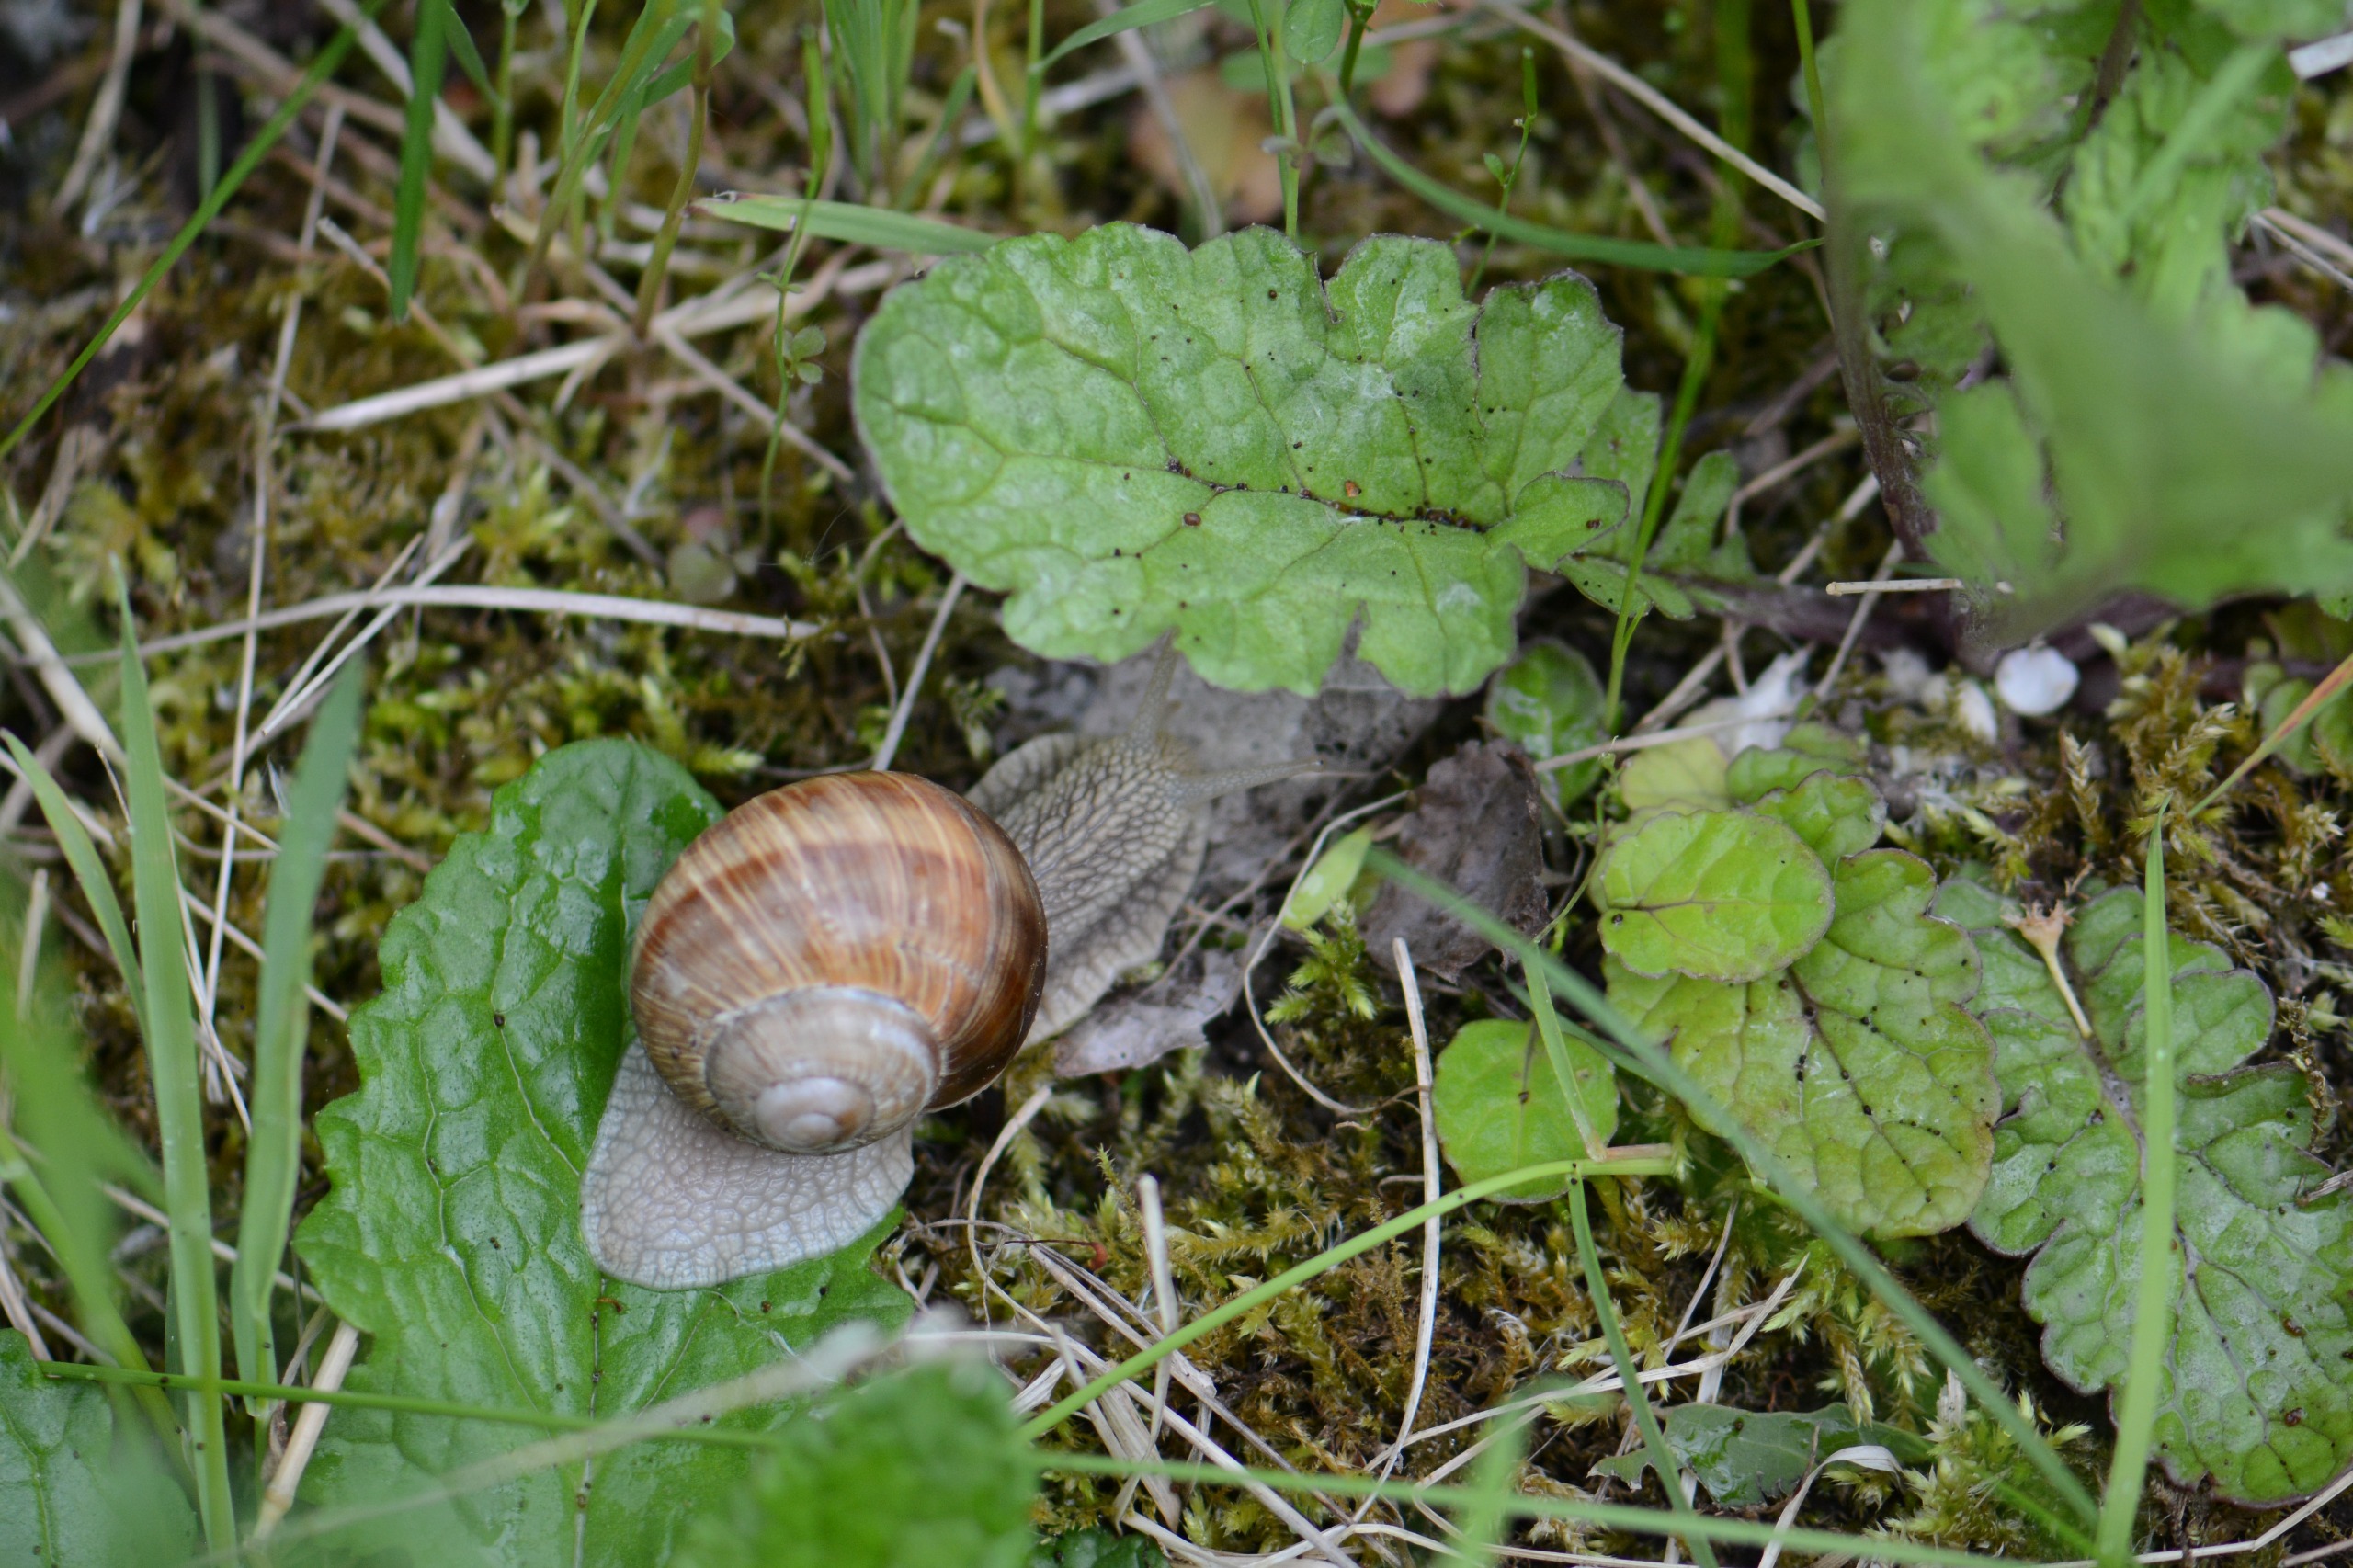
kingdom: Animalia
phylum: Mollusca
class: Gastropoda
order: Stylommatophora
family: Helicidae
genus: Helix
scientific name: Helix pomatia
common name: Vinbjergsnegl
